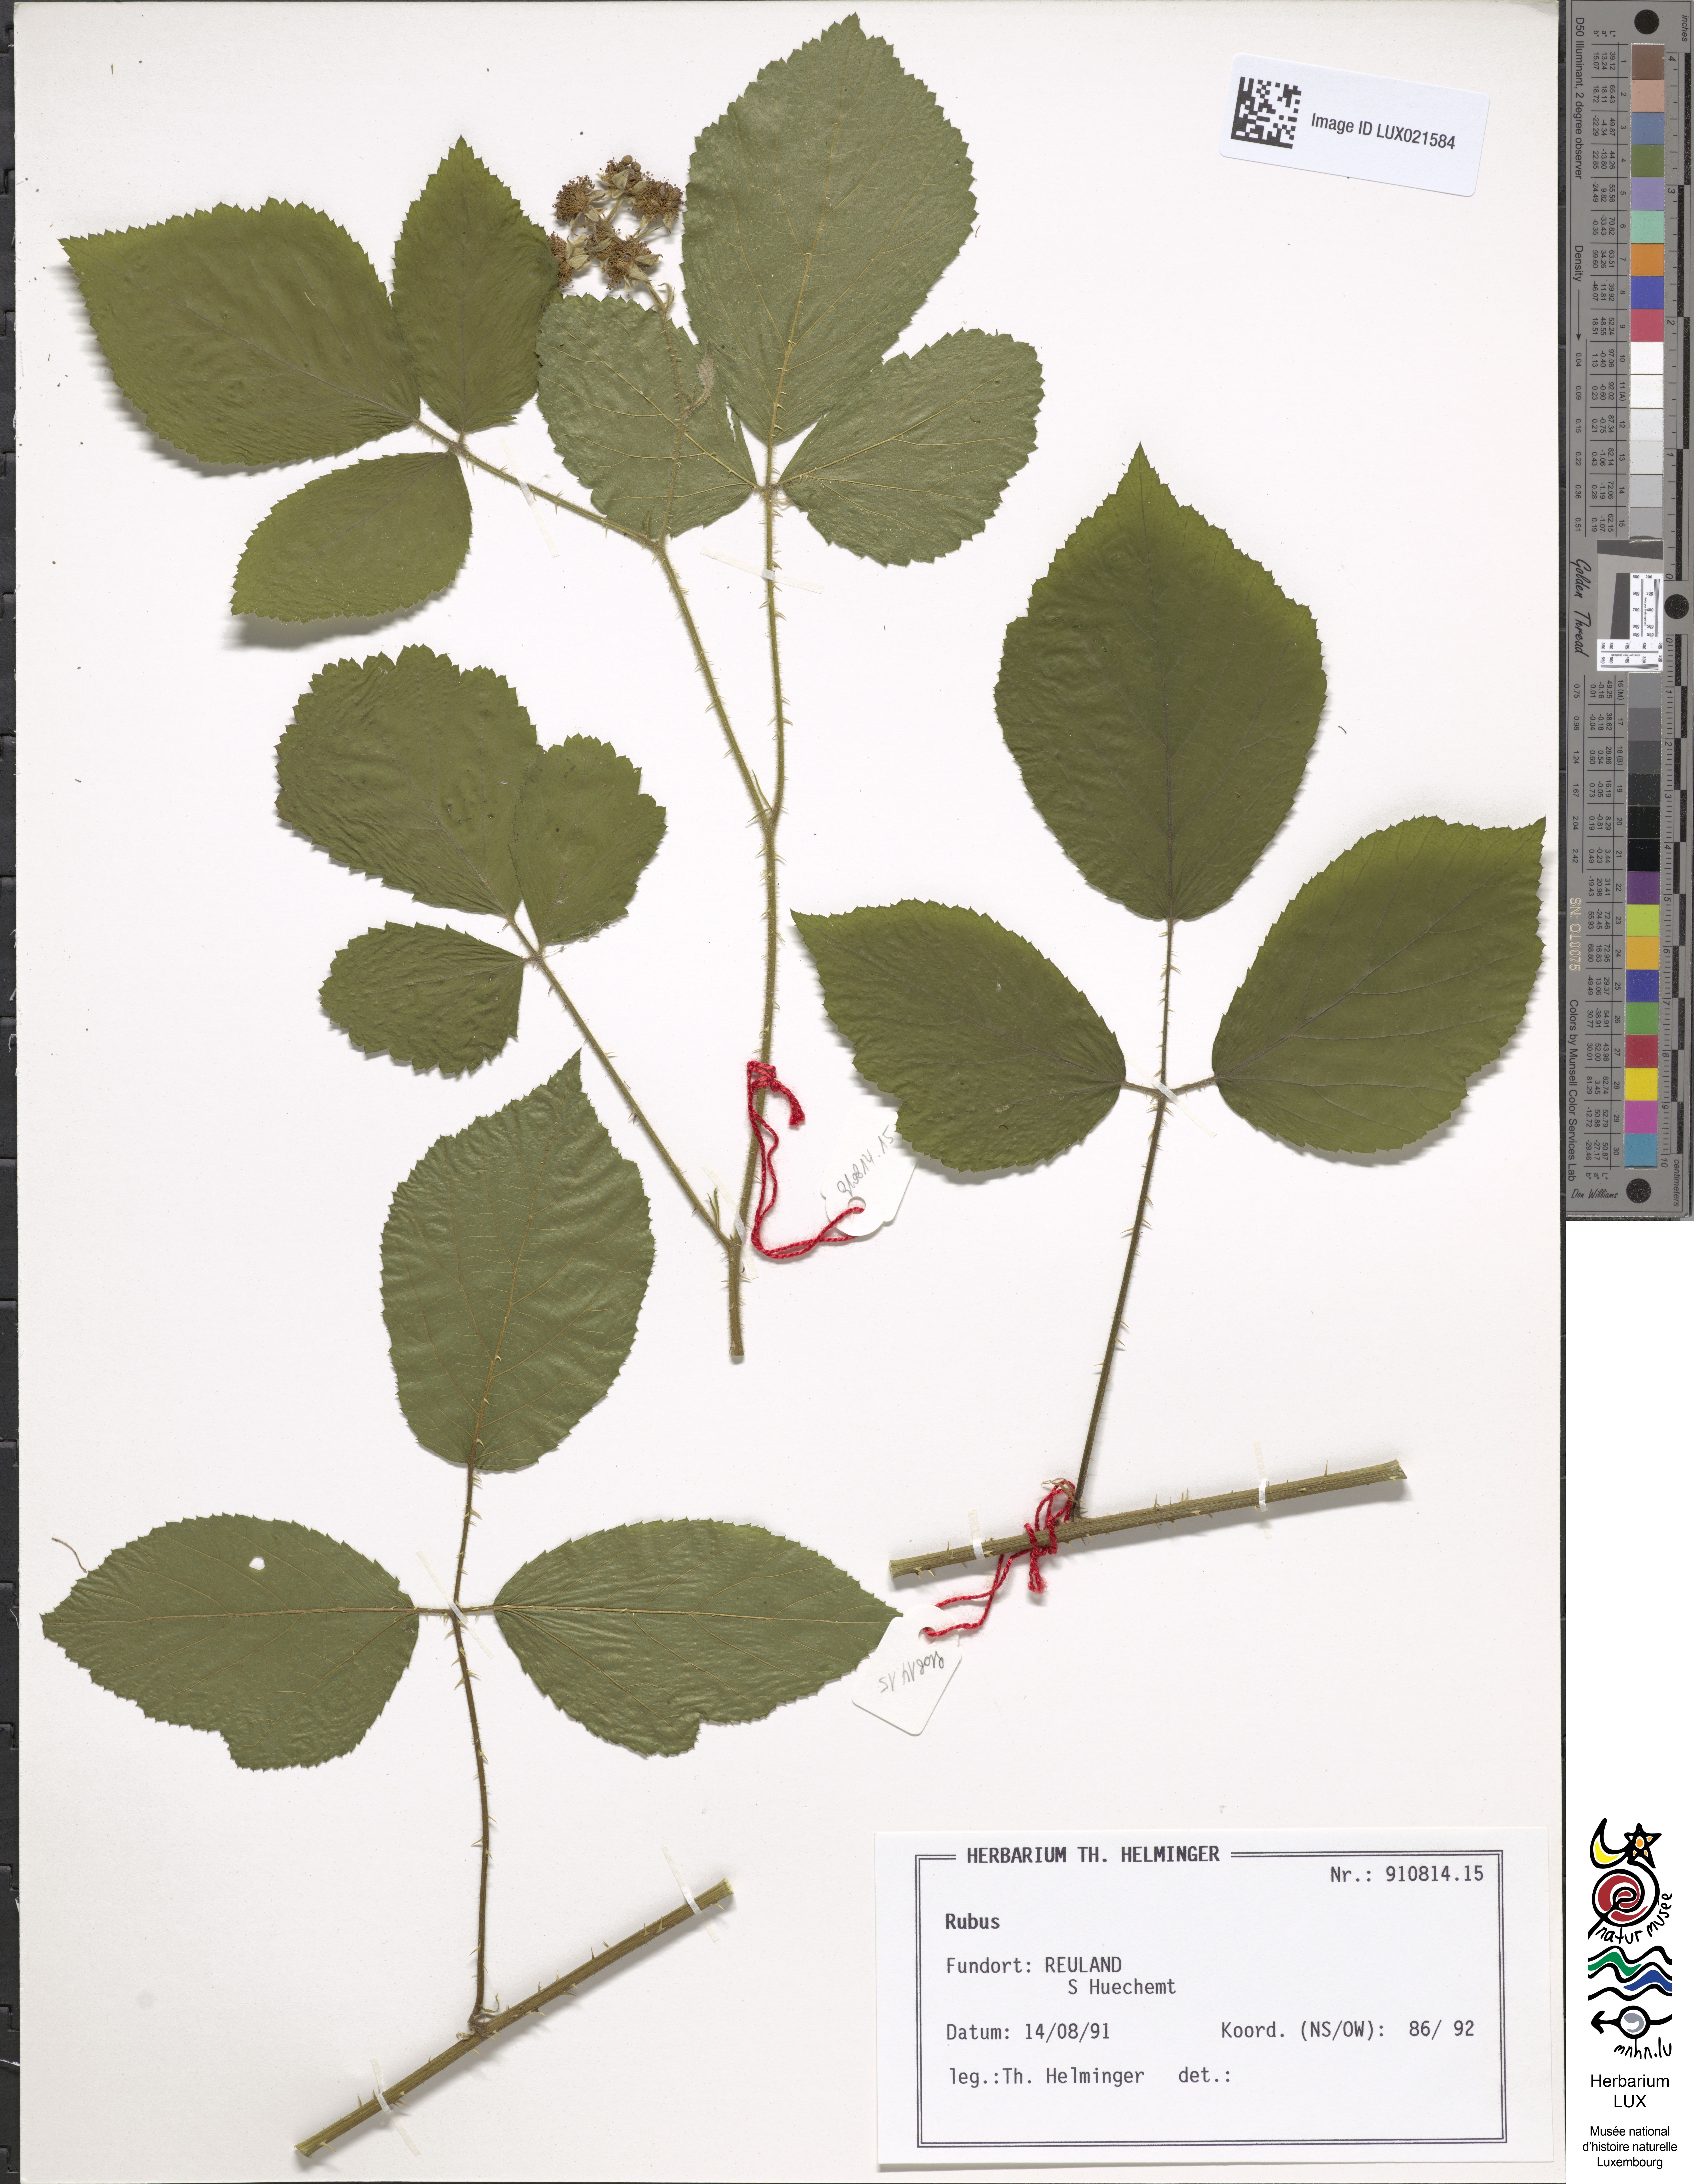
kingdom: Plantae
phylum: Tracheophyta
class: Magnoliopsida
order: Rosales
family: Rosaceae
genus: Rubus
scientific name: Rubus
